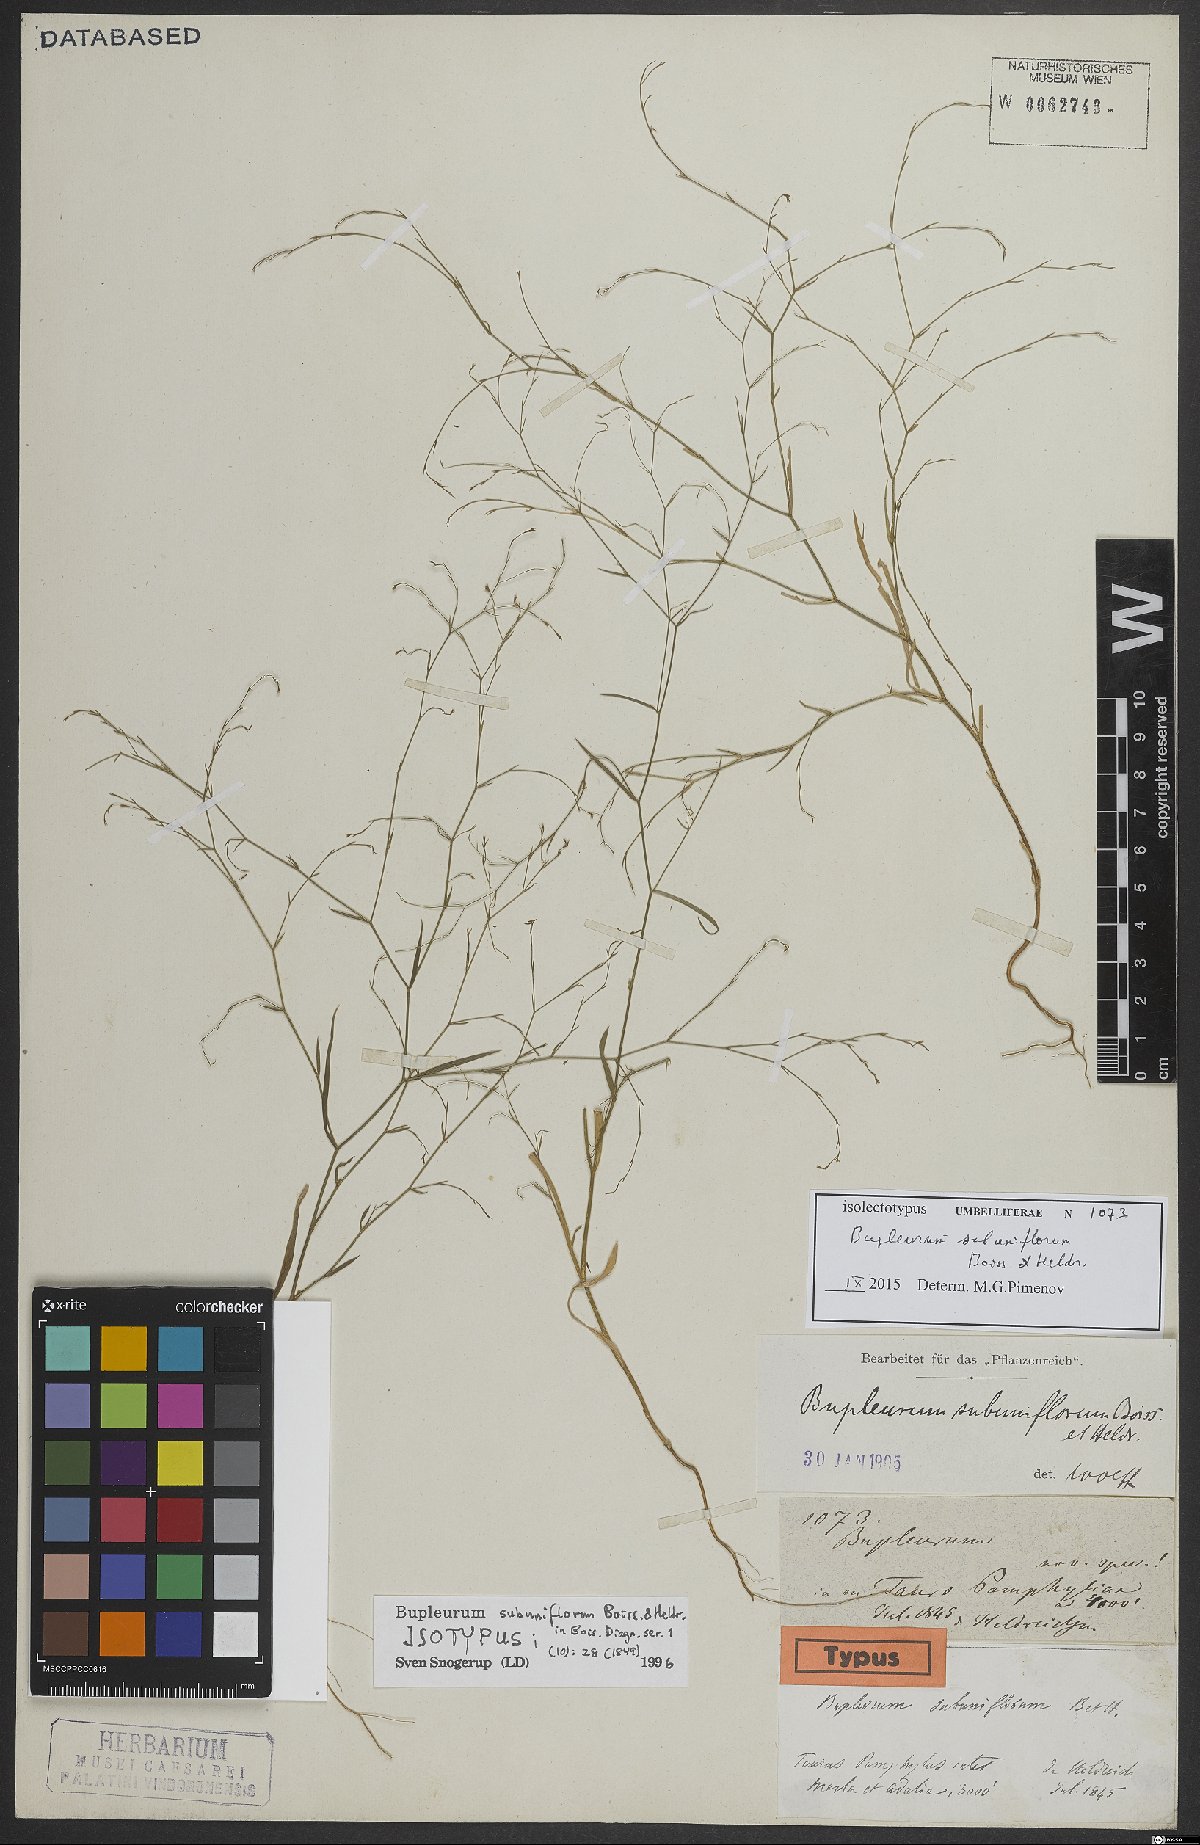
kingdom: Plantae
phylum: Tracheophyta
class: Magnoliopsida
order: Apiales
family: Apiaceae
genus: Bupleurum
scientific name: Bupleurum subuniflorum
